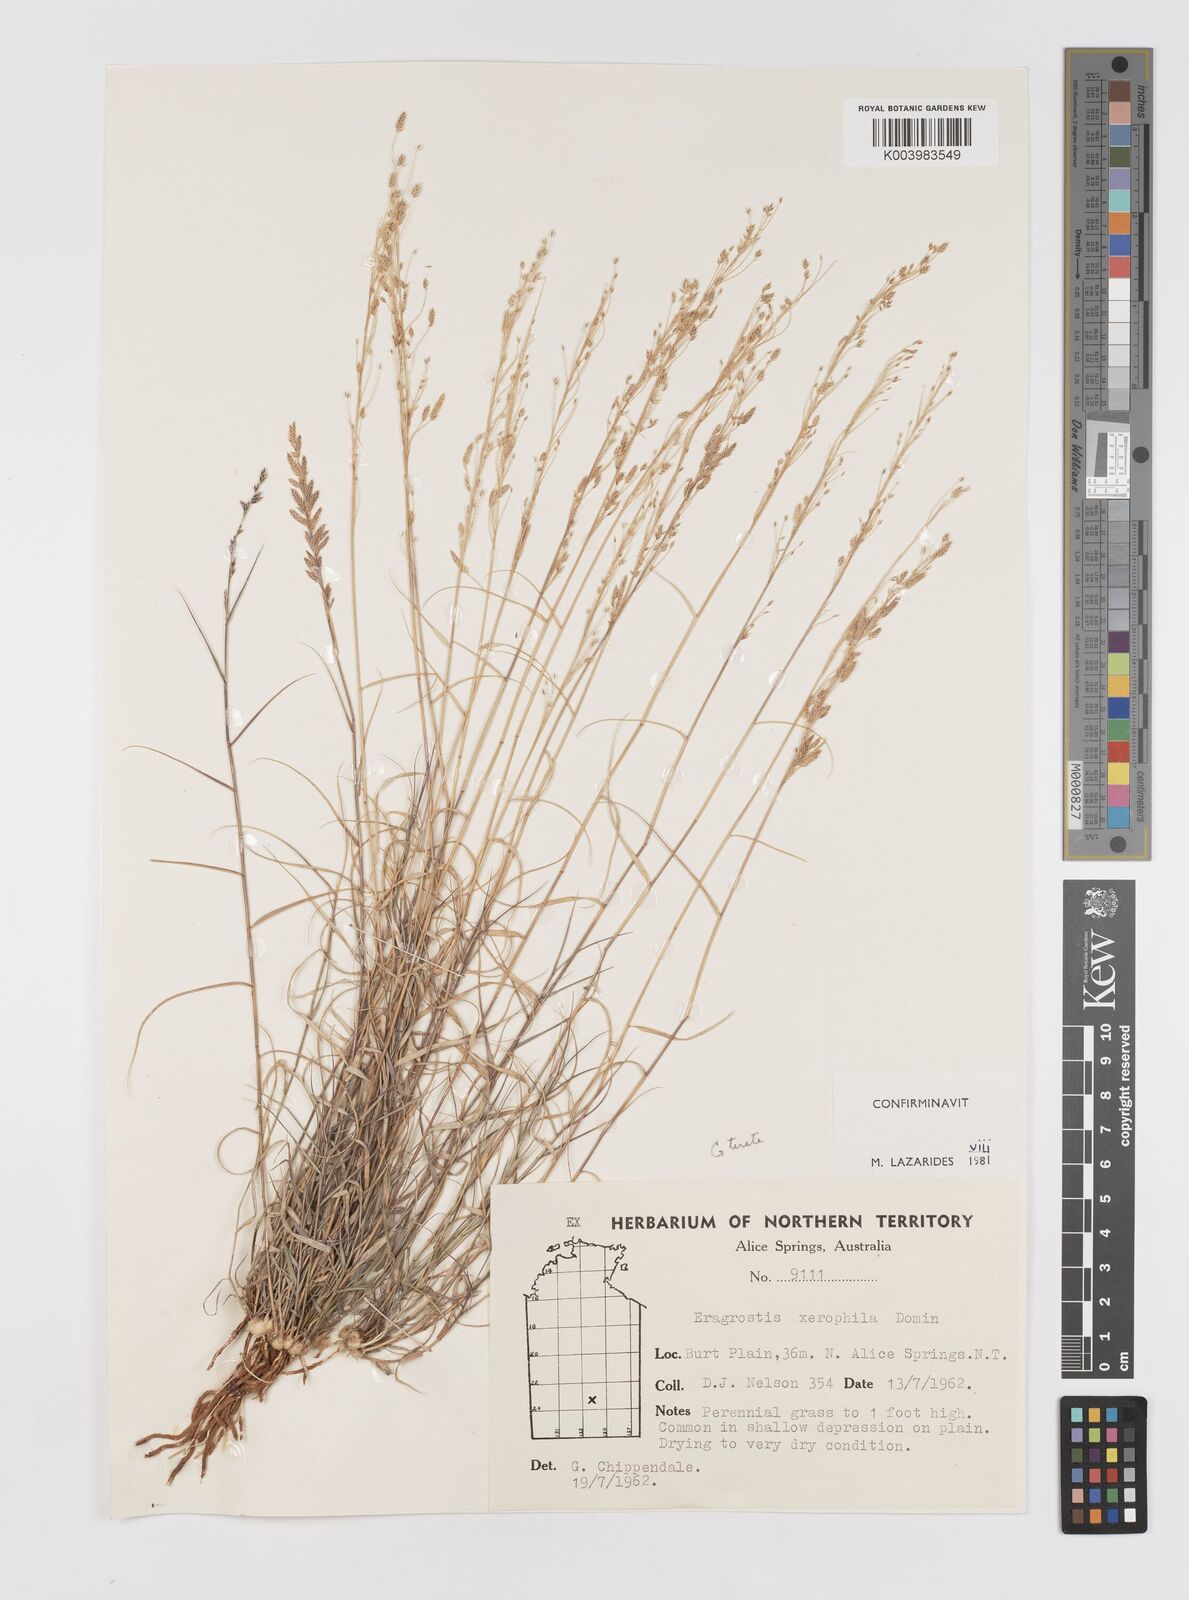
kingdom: Plantae
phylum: Tracheophyta
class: Liliopsida
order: Poales
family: Poaceae
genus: Eragrostis
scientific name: Eragrostis xerophila
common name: Wire wandarrie grass
